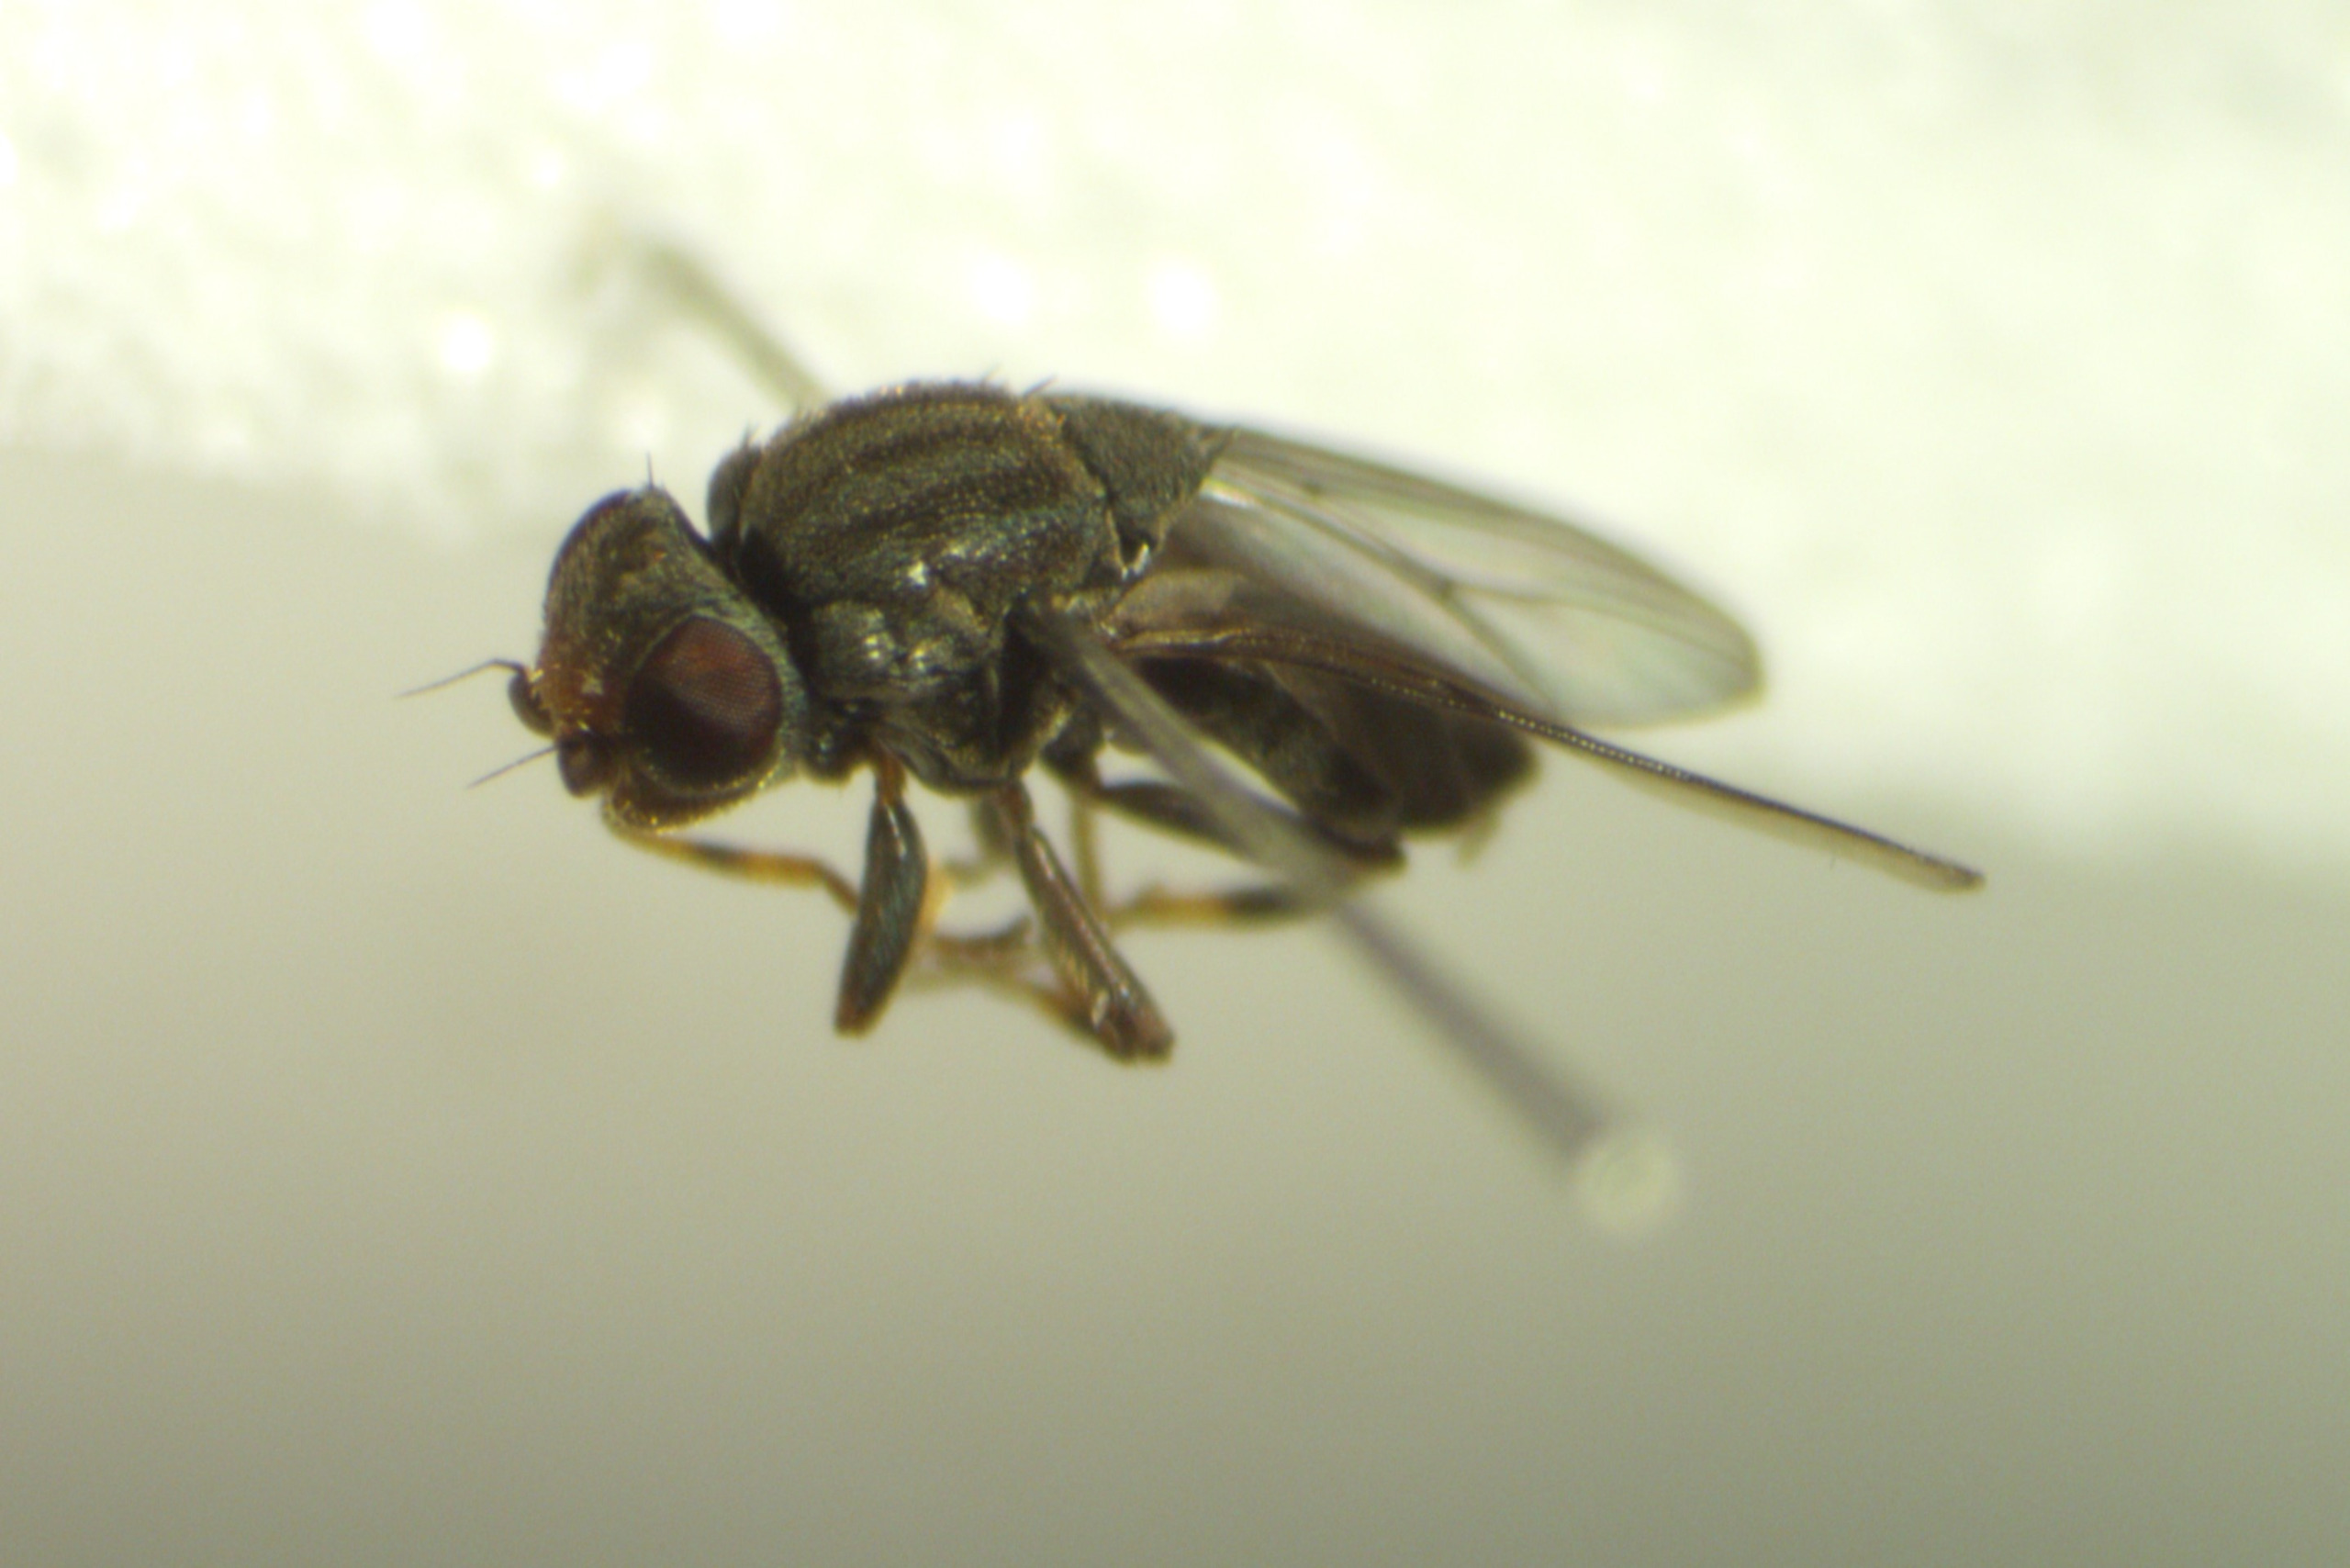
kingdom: Animalia
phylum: Arthropoda
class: Insecta
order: Diptera
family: Chloropidae
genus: Aphanotrigonum
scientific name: Aphanotrigonum trilineatum
